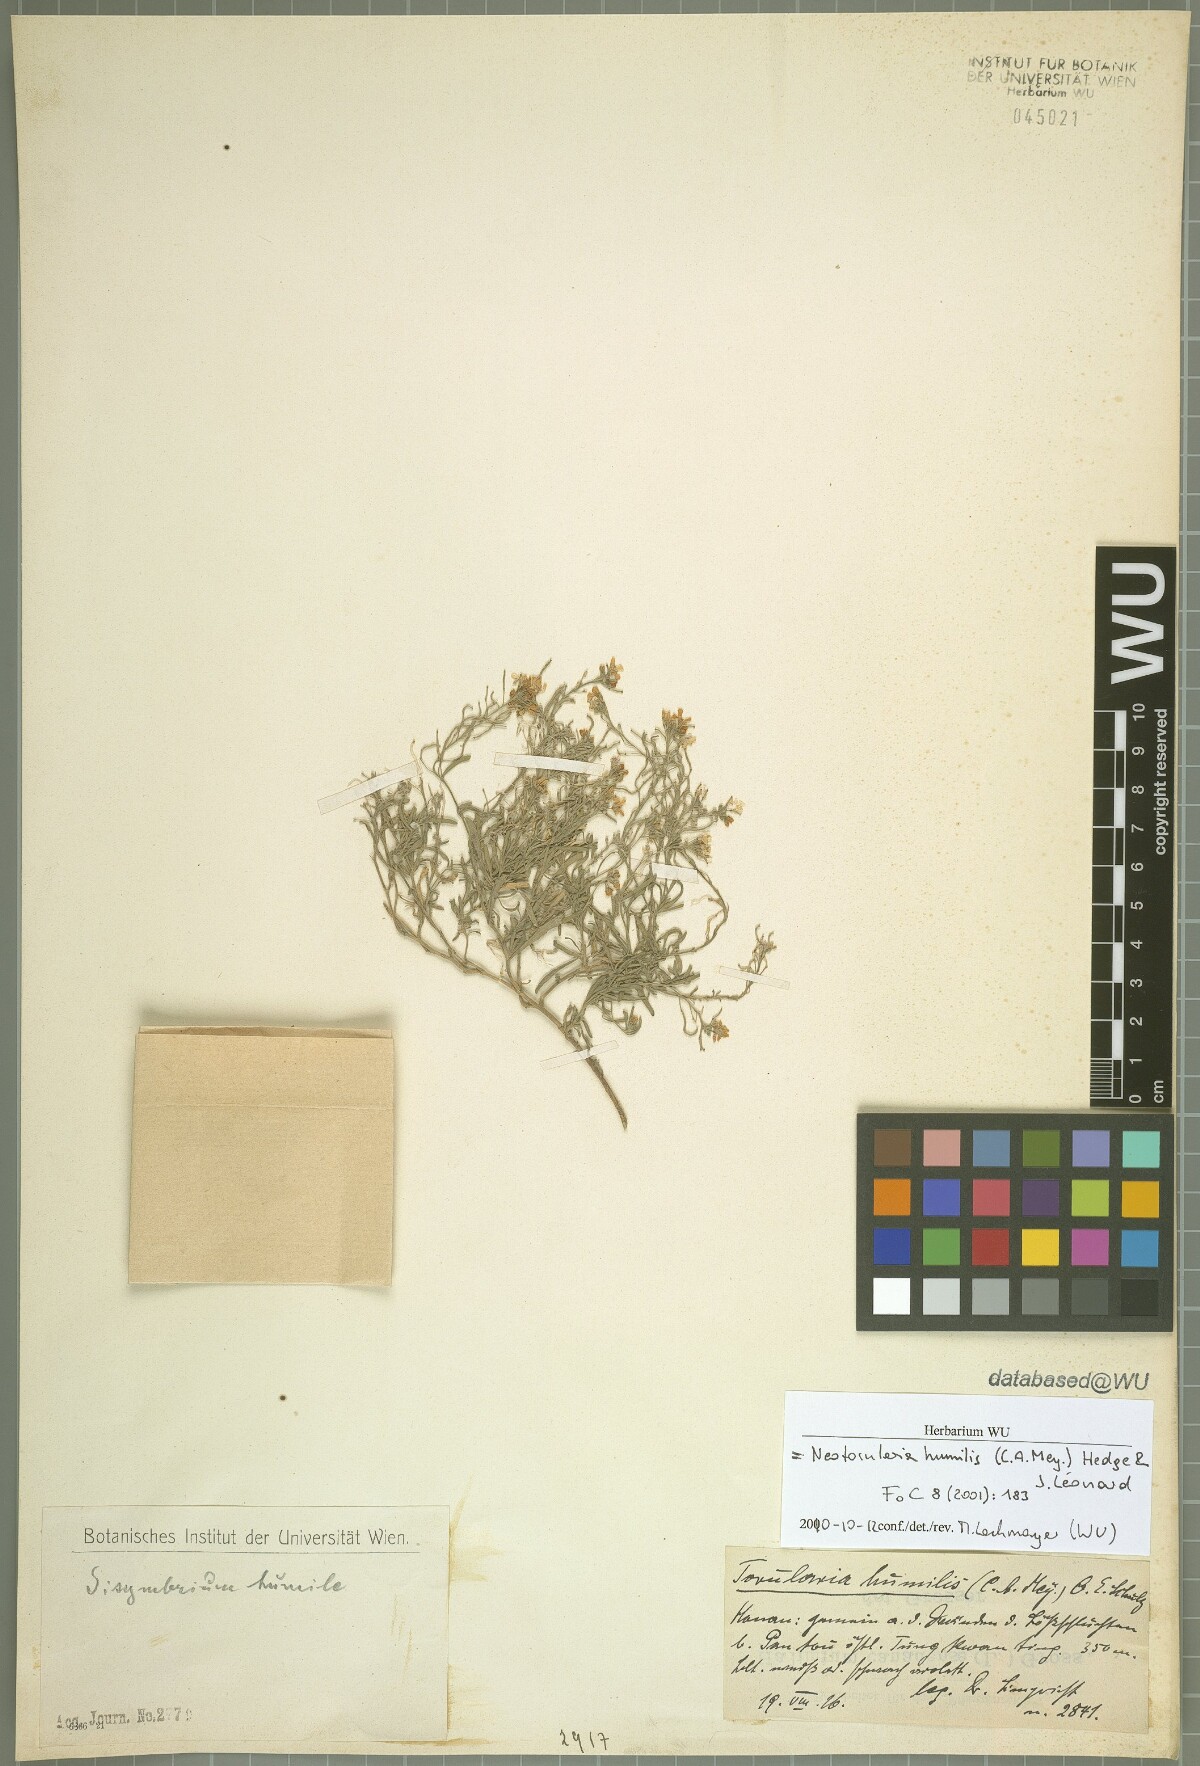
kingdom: Plantae
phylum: Tracheophyta
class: Magnoliopsida
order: Brassicales
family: Brassicaceae
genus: Braya
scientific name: Braya humilis
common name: Alpine northern rockcress
